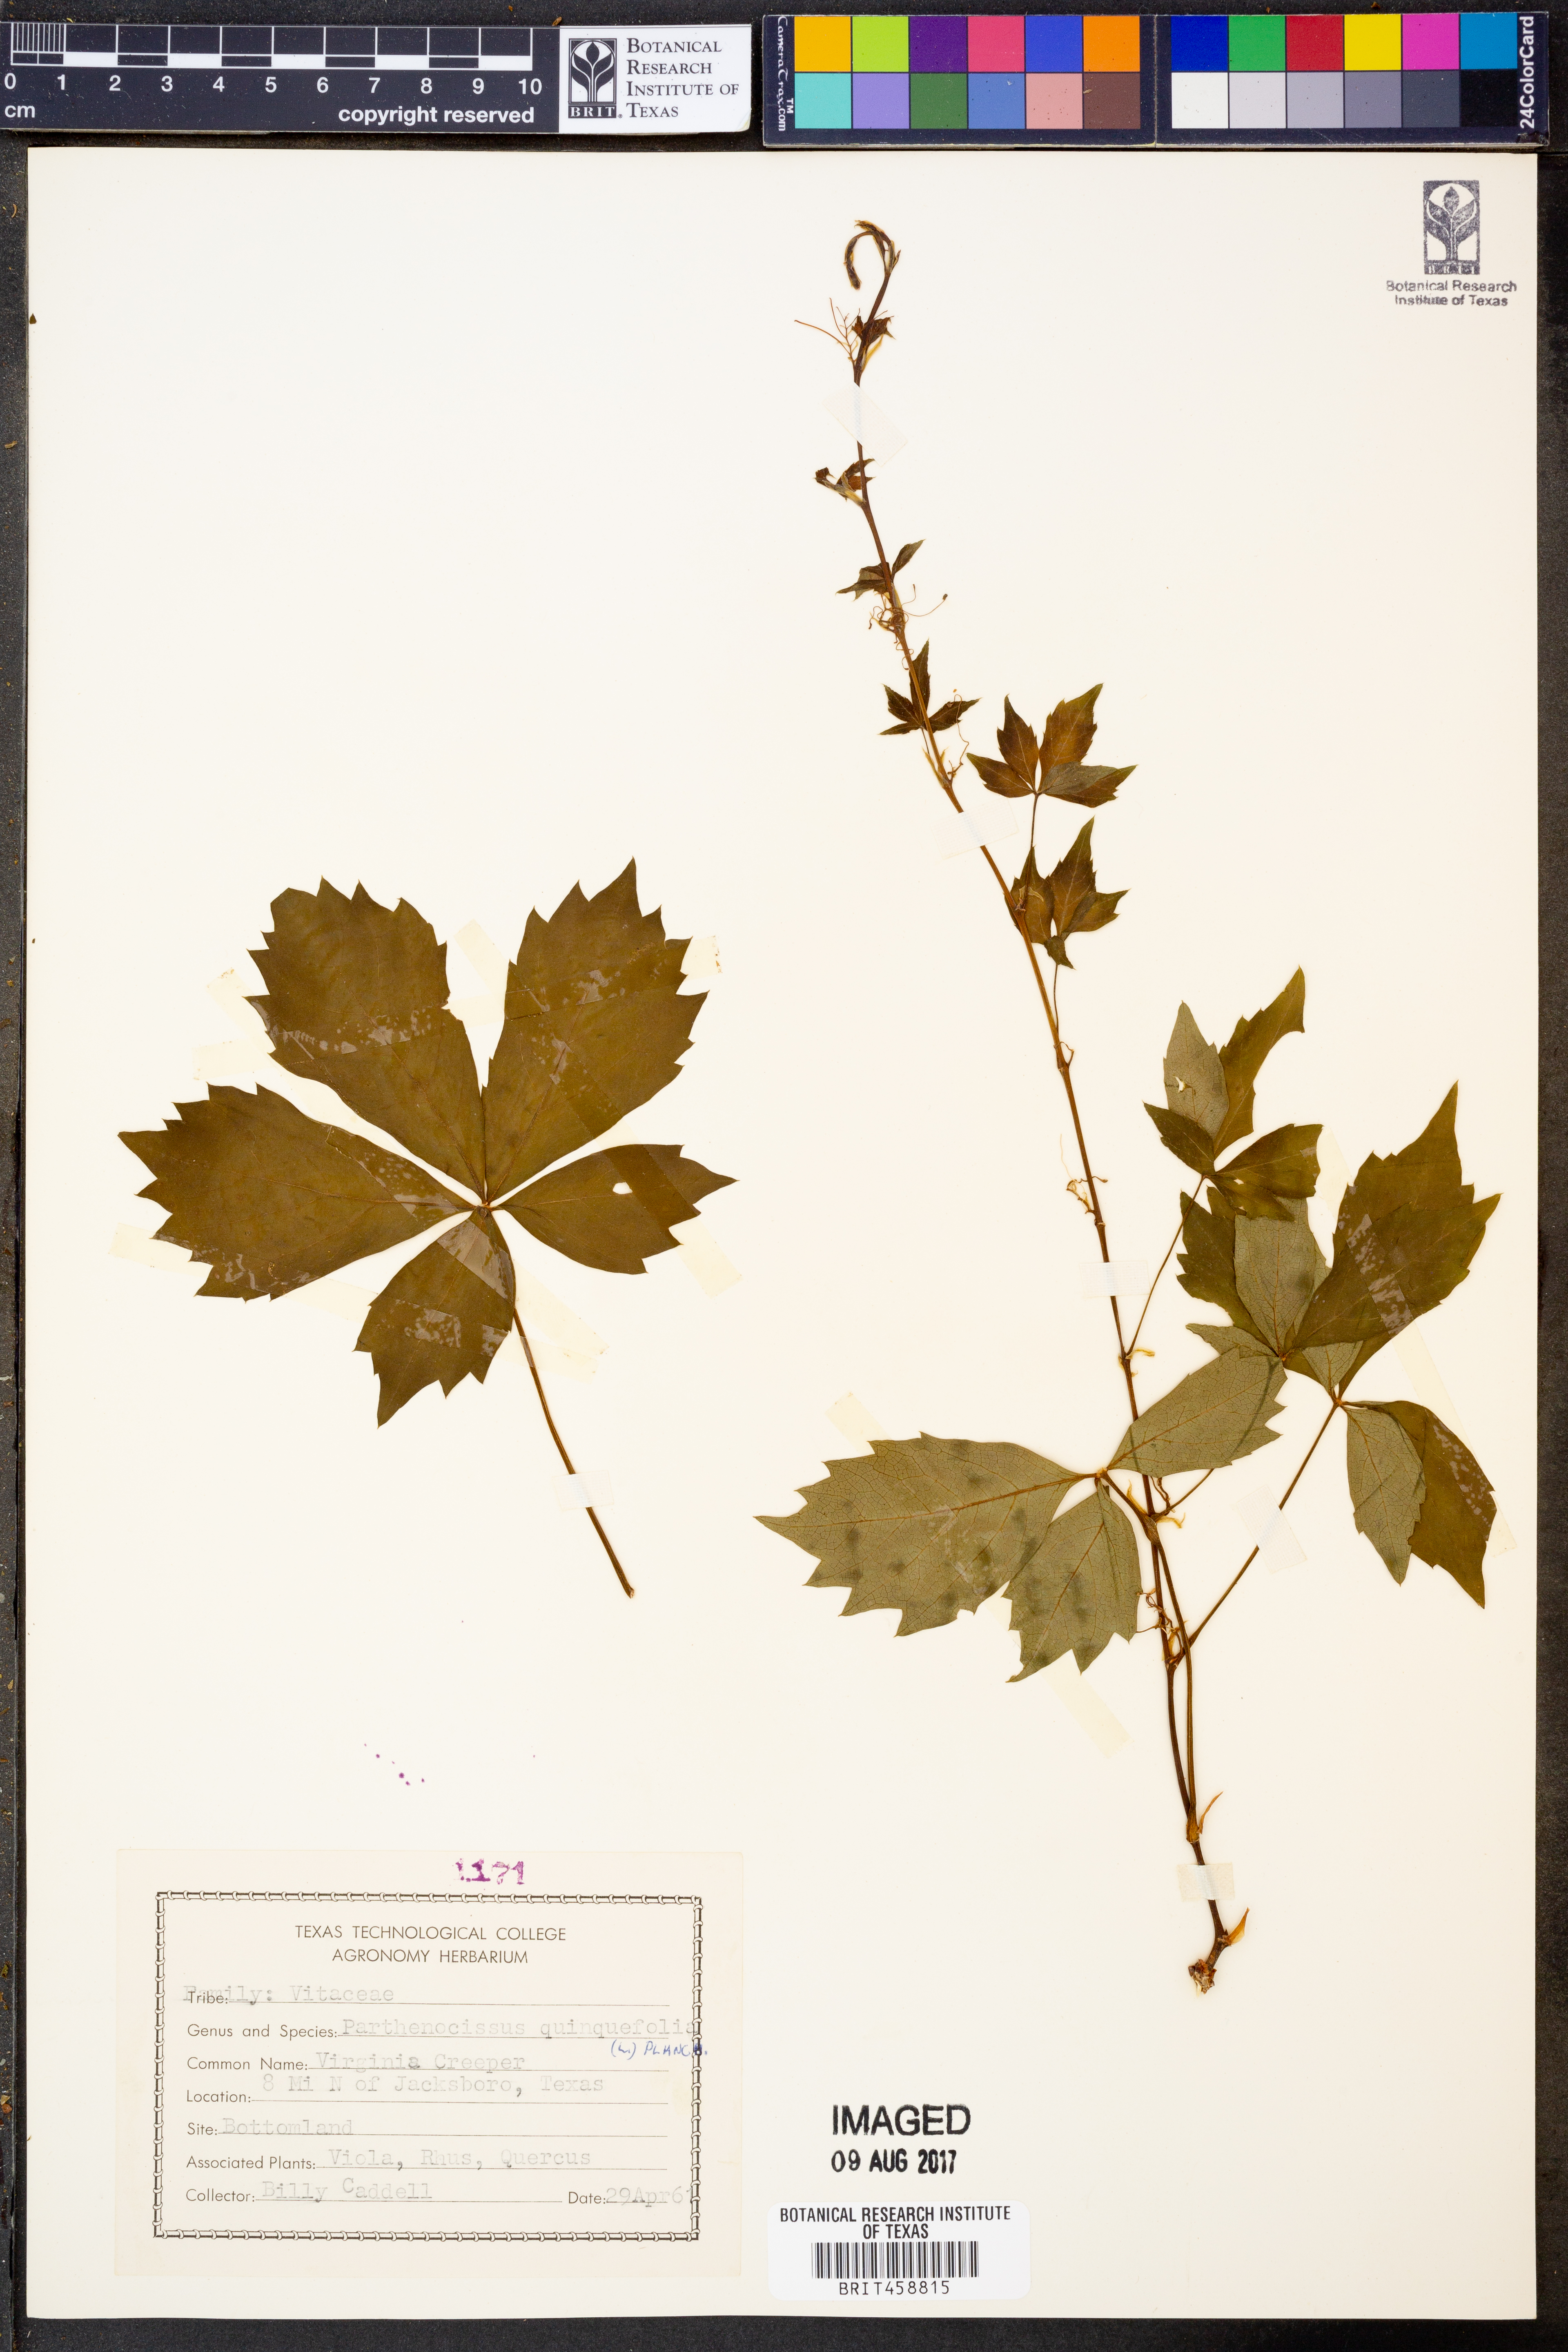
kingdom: Plantae
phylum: Tracheophyta
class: Magnoliopsida
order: Vitales
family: Vitaceae
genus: Parthenocissus
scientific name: Parthenocissus quinquefolia
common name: Virginia-creeper
